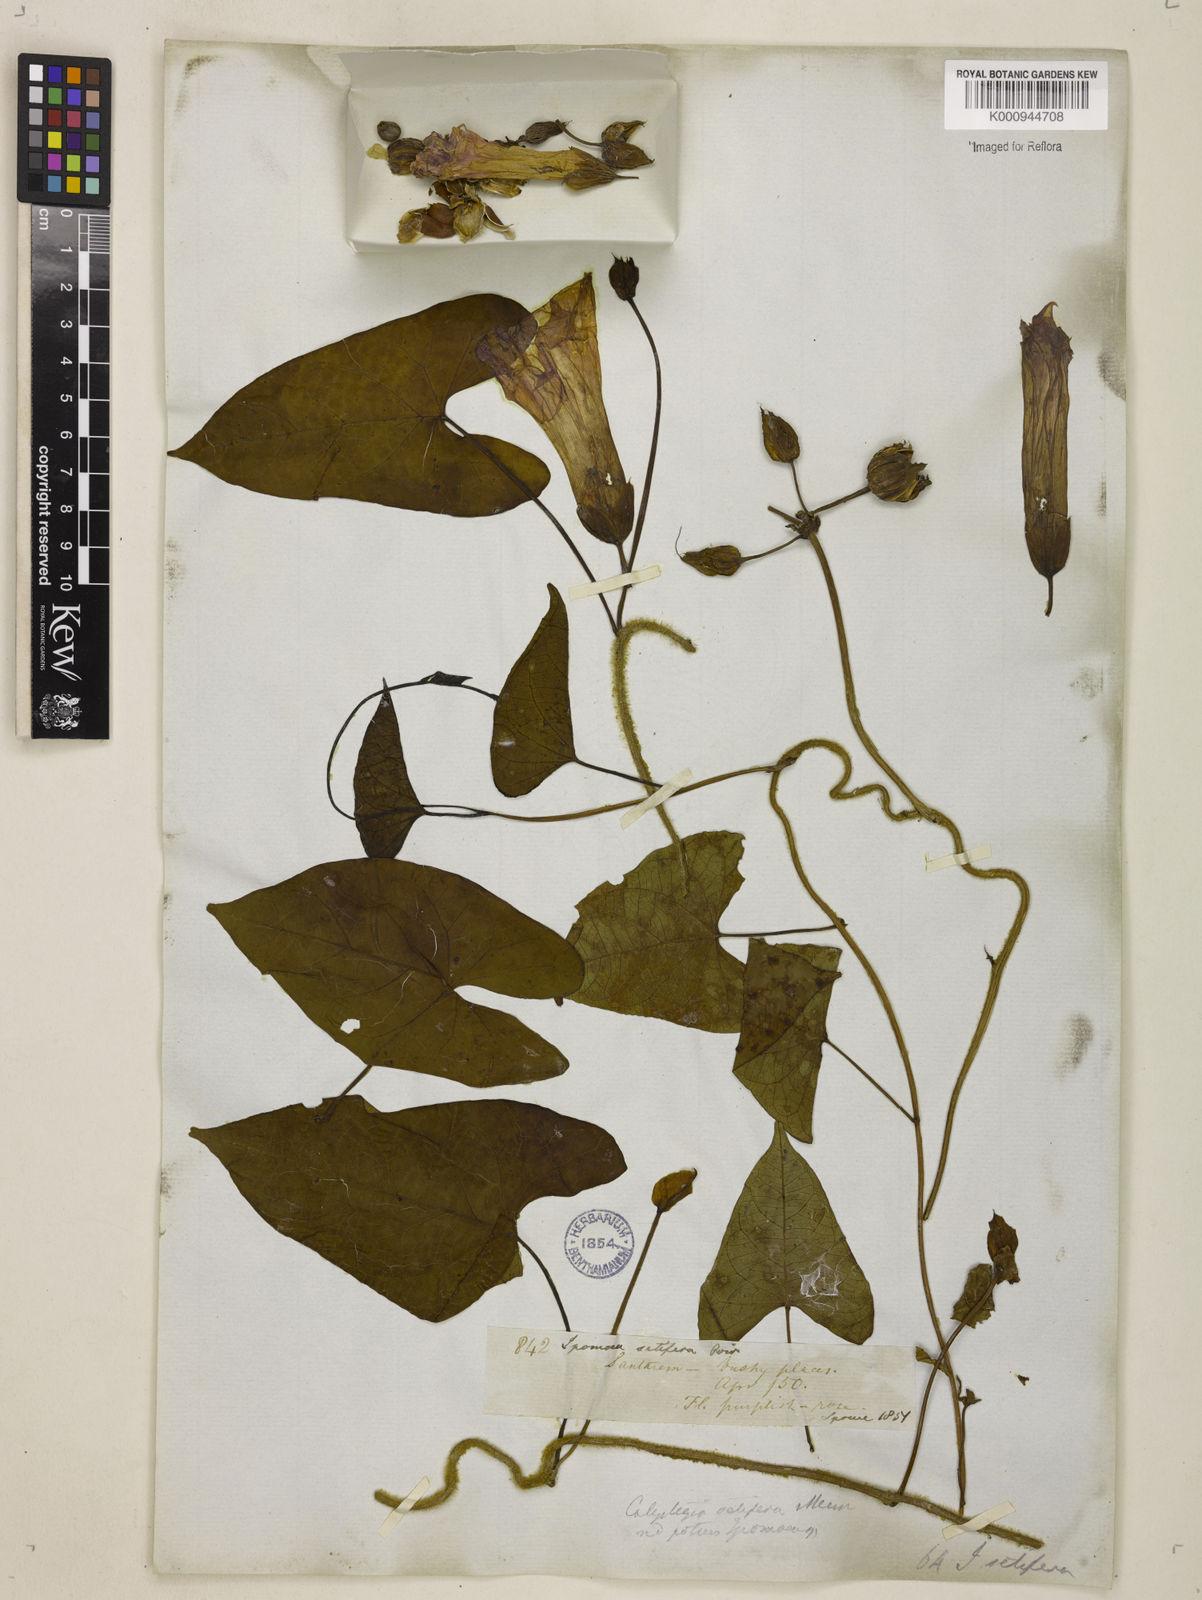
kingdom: Plantae
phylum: Tracheophyta
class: Magnoliopsida
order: Solanales
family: Convolvulaceae
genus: Ipomoea
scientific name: Ipomoea setifera
